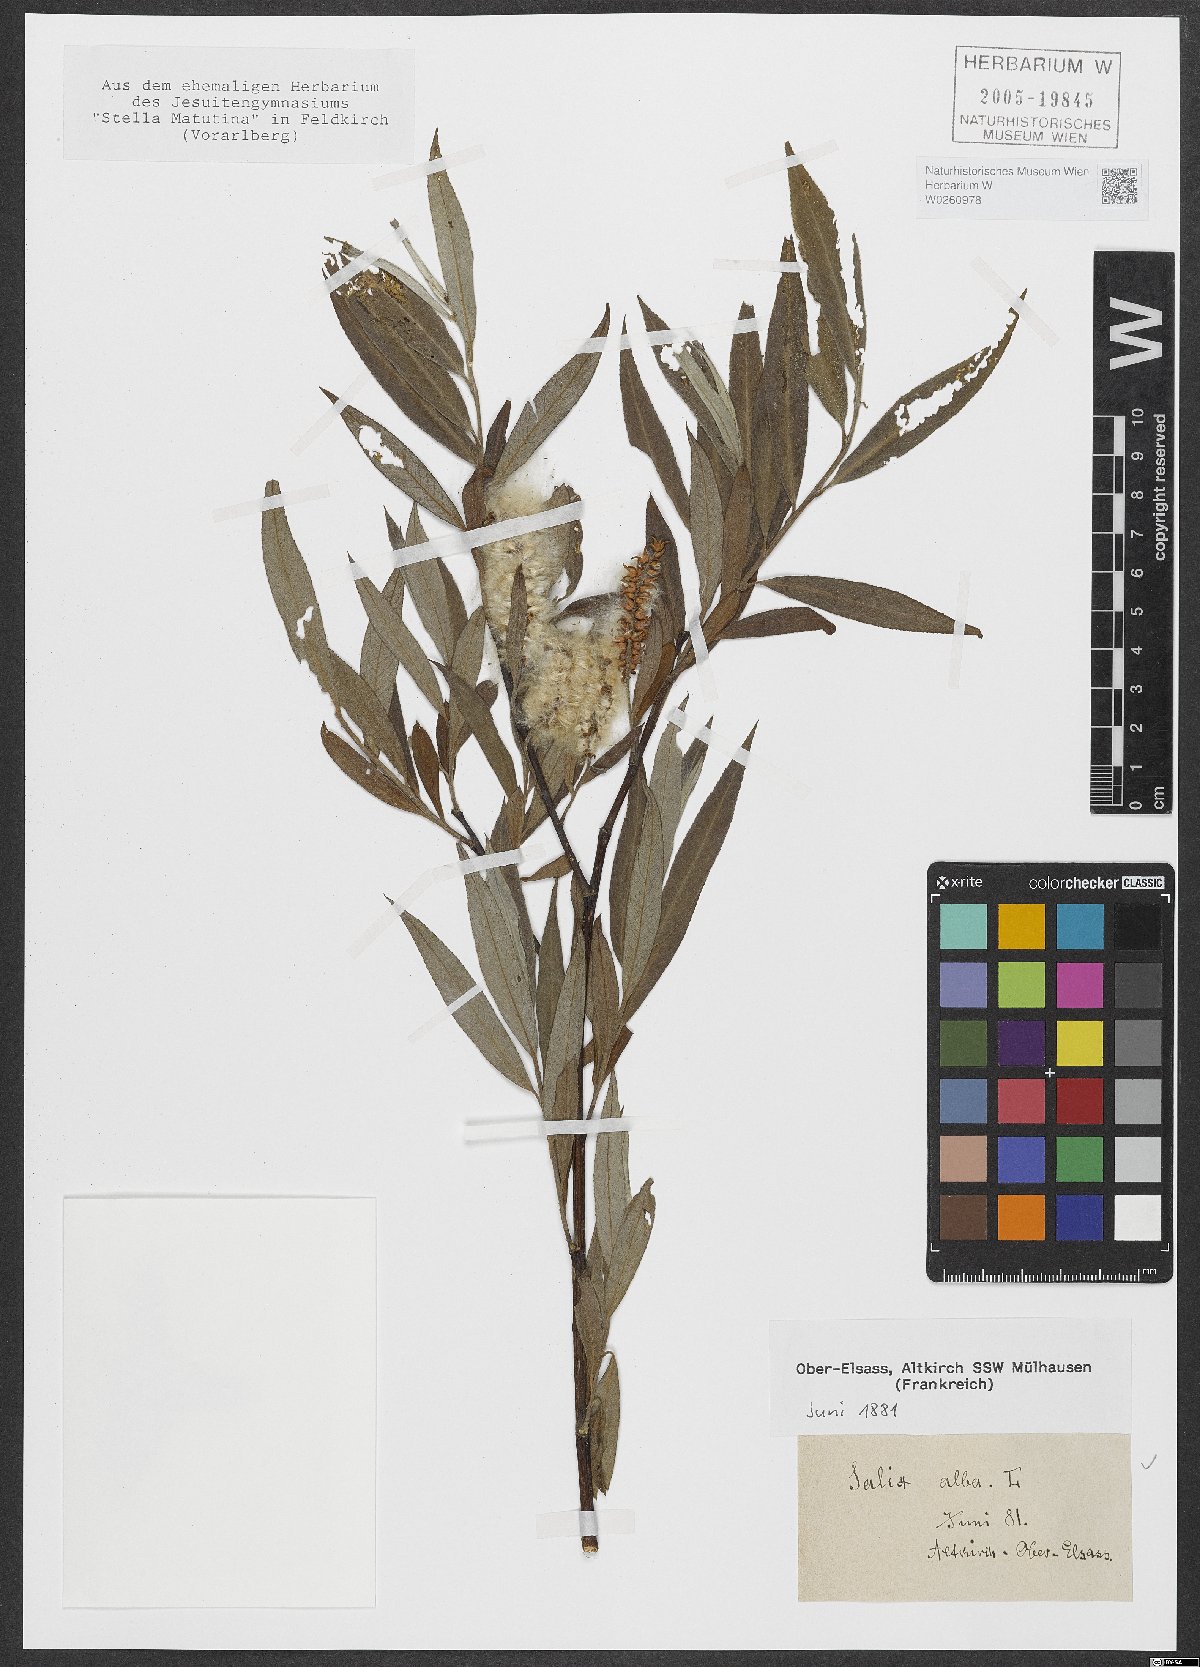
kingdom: Plantae
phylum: Tracheophyta
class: Magnoliopsida
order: Malpighiales
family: Salicaceae
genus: Salix
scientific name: Salix alba
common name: White willow
